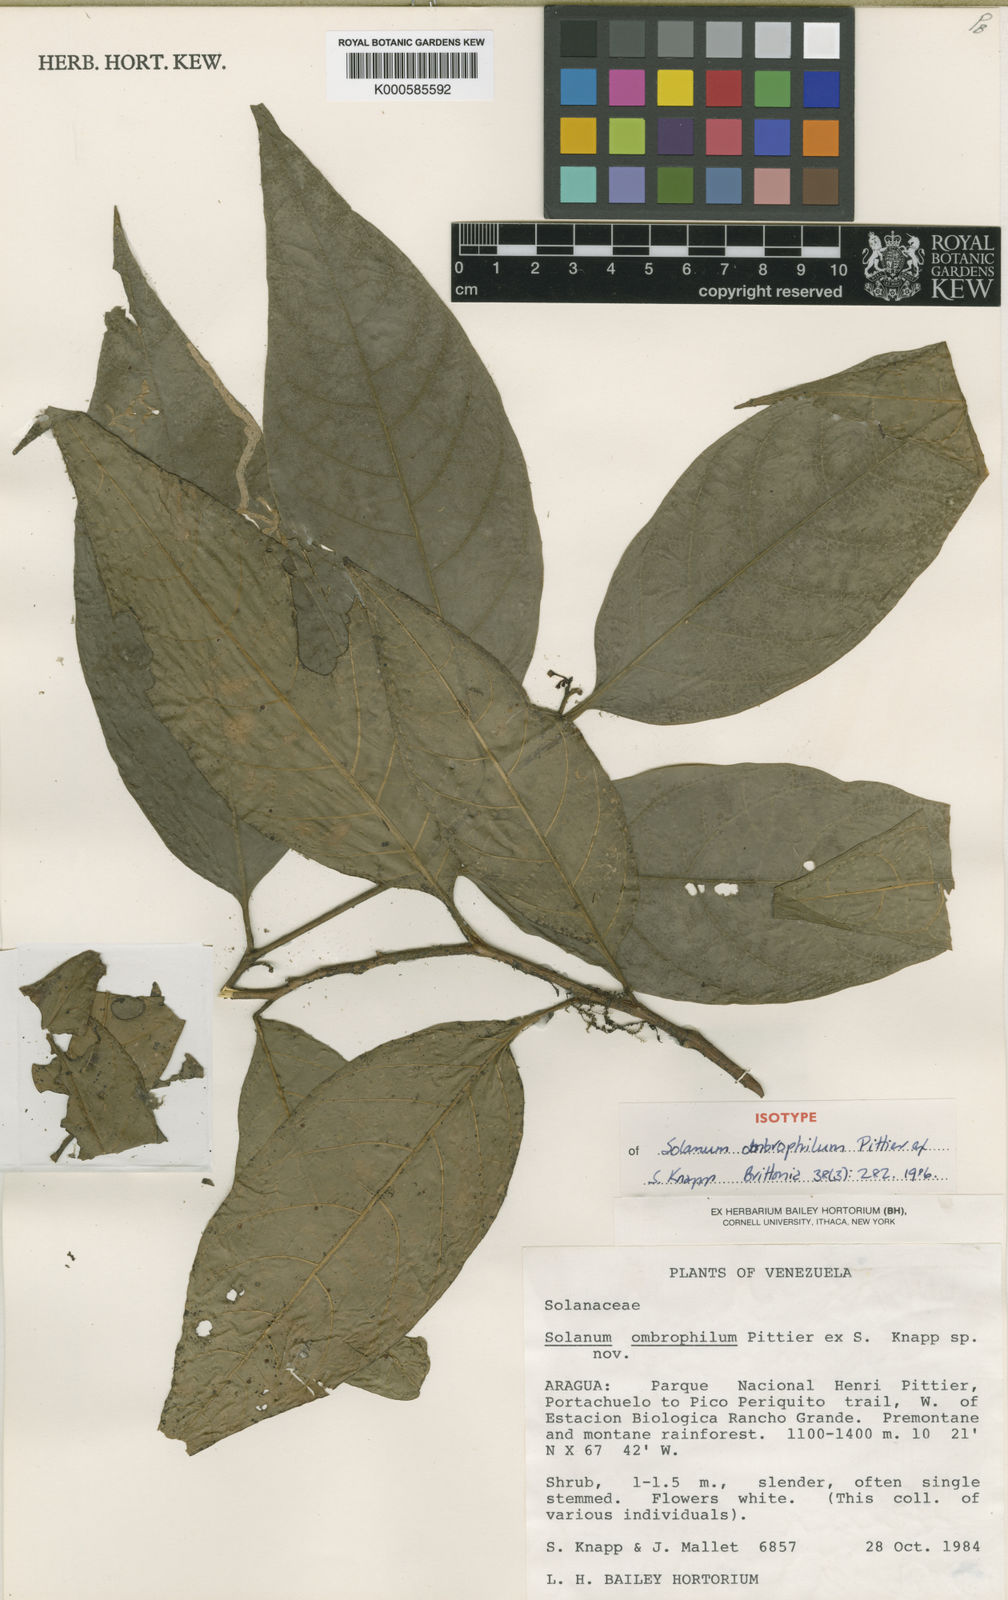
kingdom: Plantae
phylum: Tracheophyta
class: Magnoliopsida
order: Solanales
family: Solanaceae
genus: Solanum
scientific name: Solanum ombrophilum
